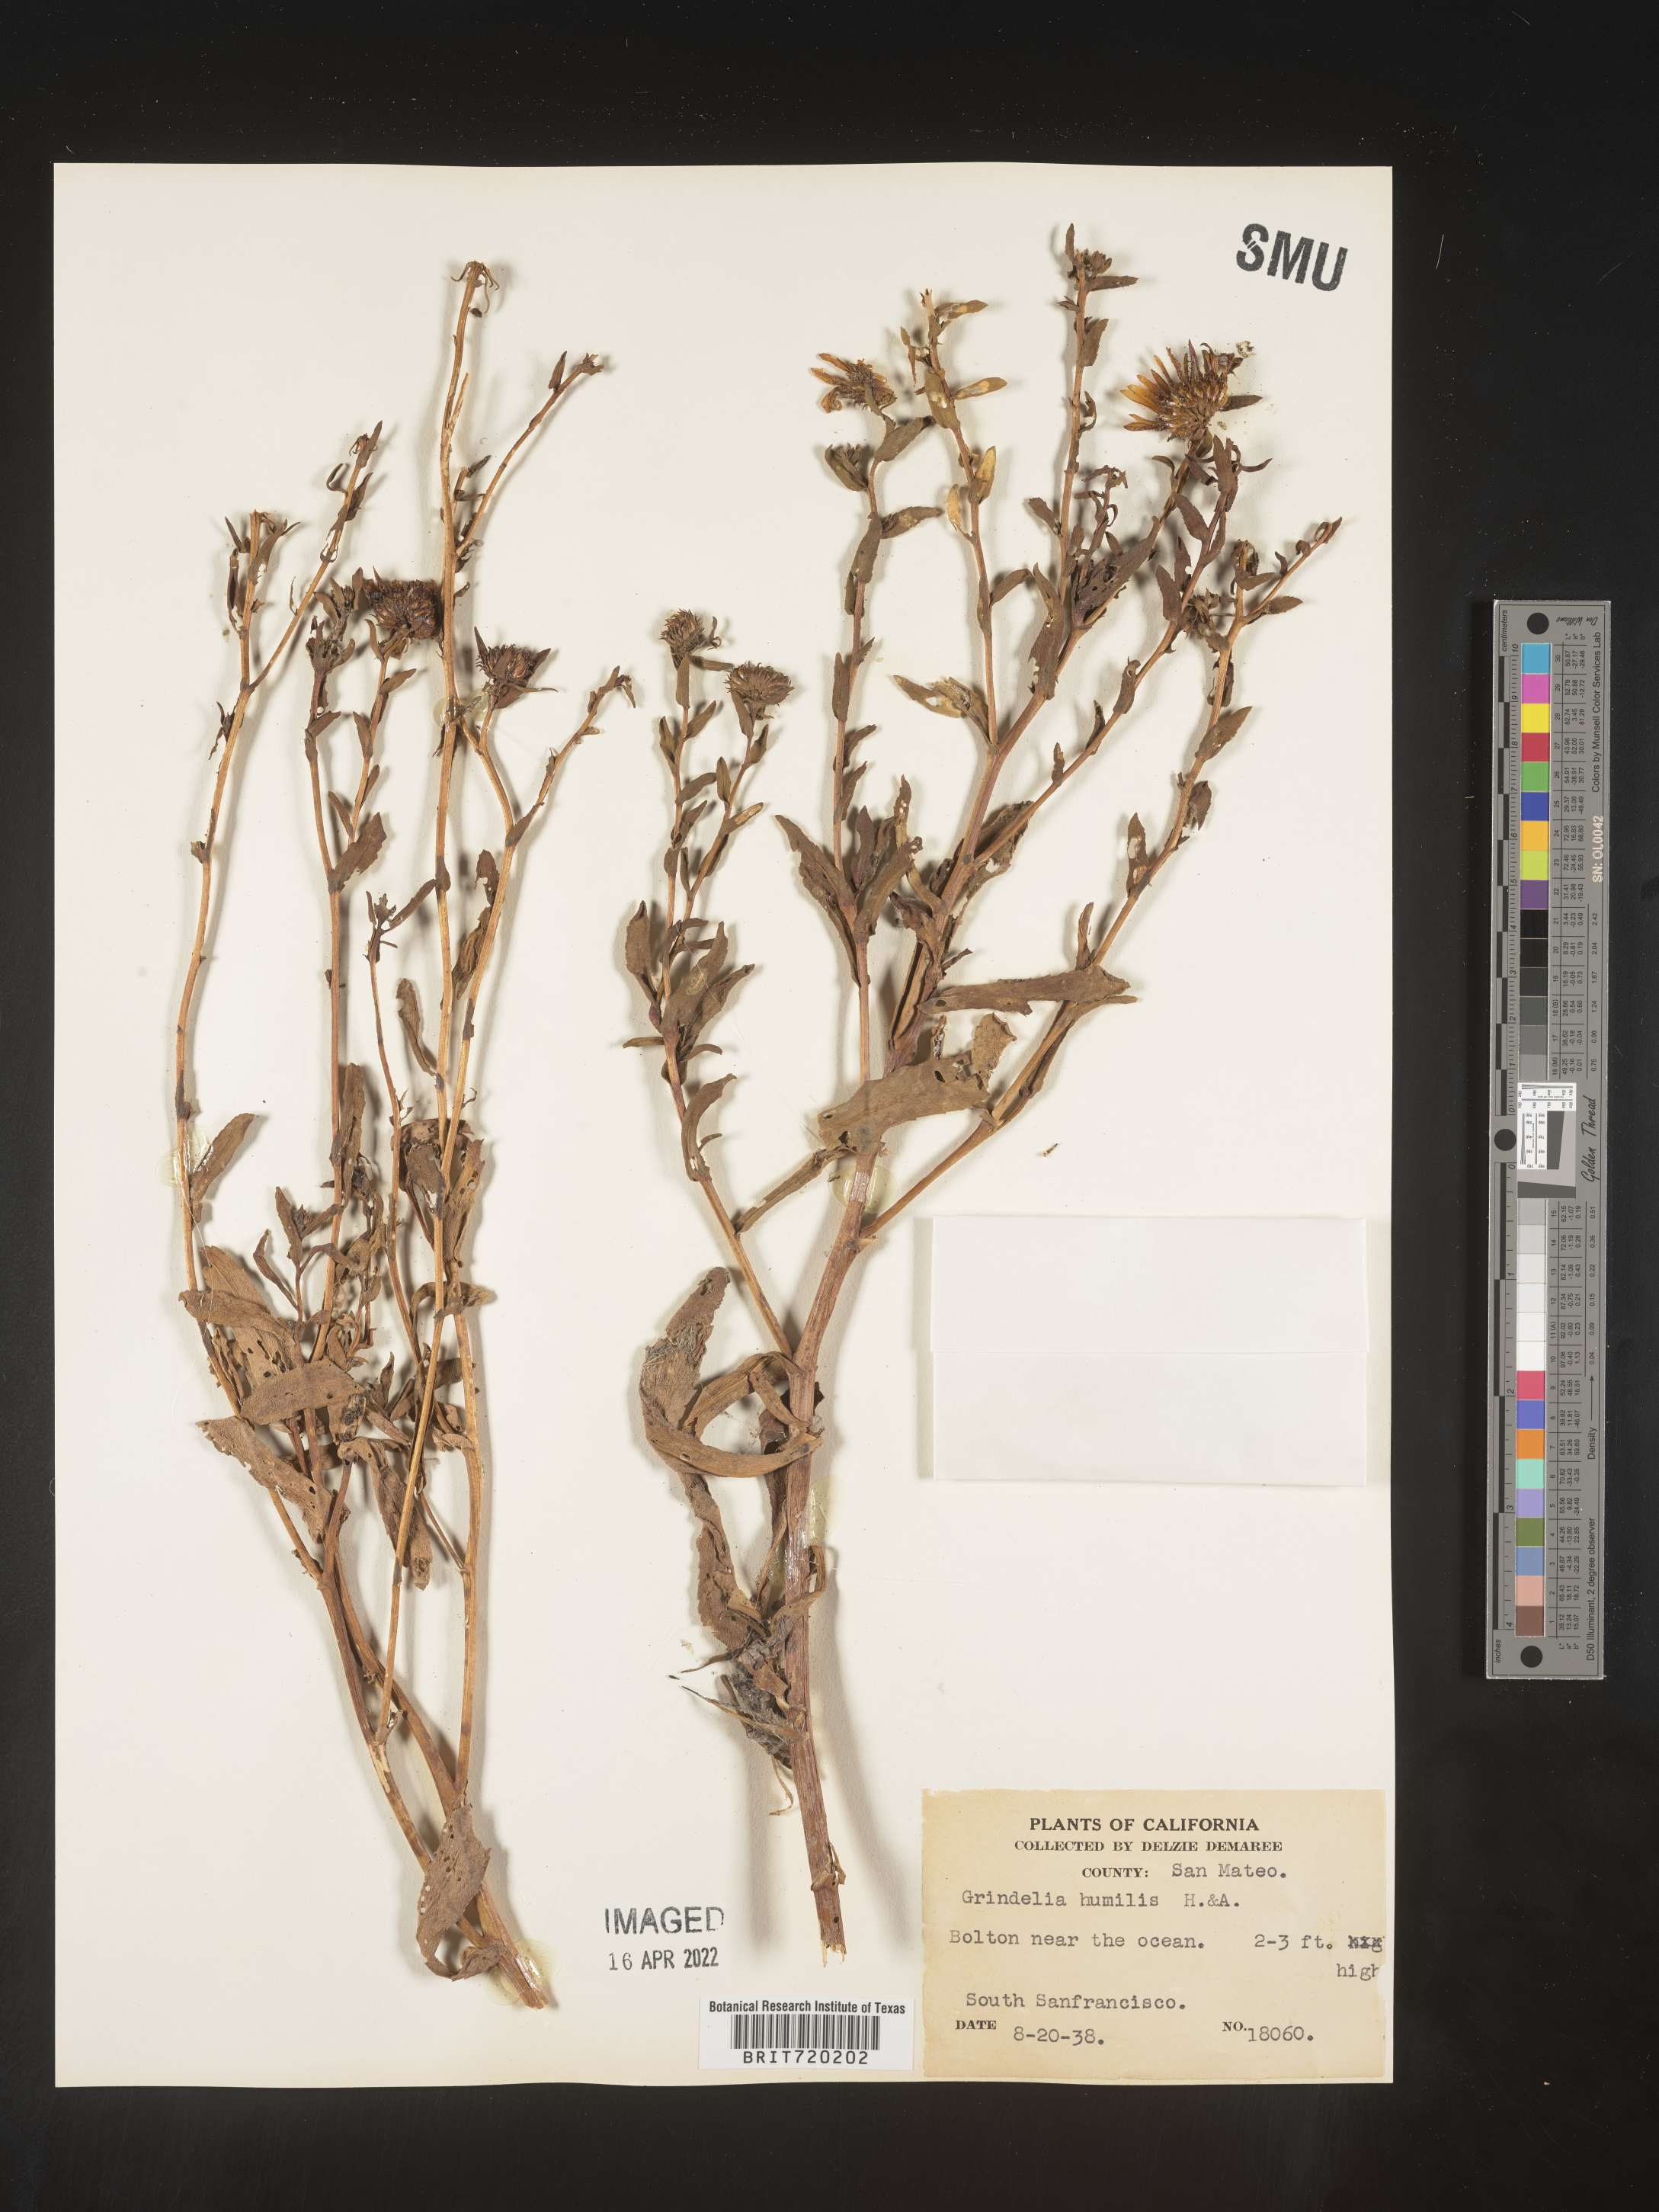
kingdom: Plantae
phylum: Tracheophyta
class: Magnoliopsida
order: Asterales
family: Asteraceae
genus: Grindelia
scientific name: Grindelia hirsutula
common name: Hairy gumweed
